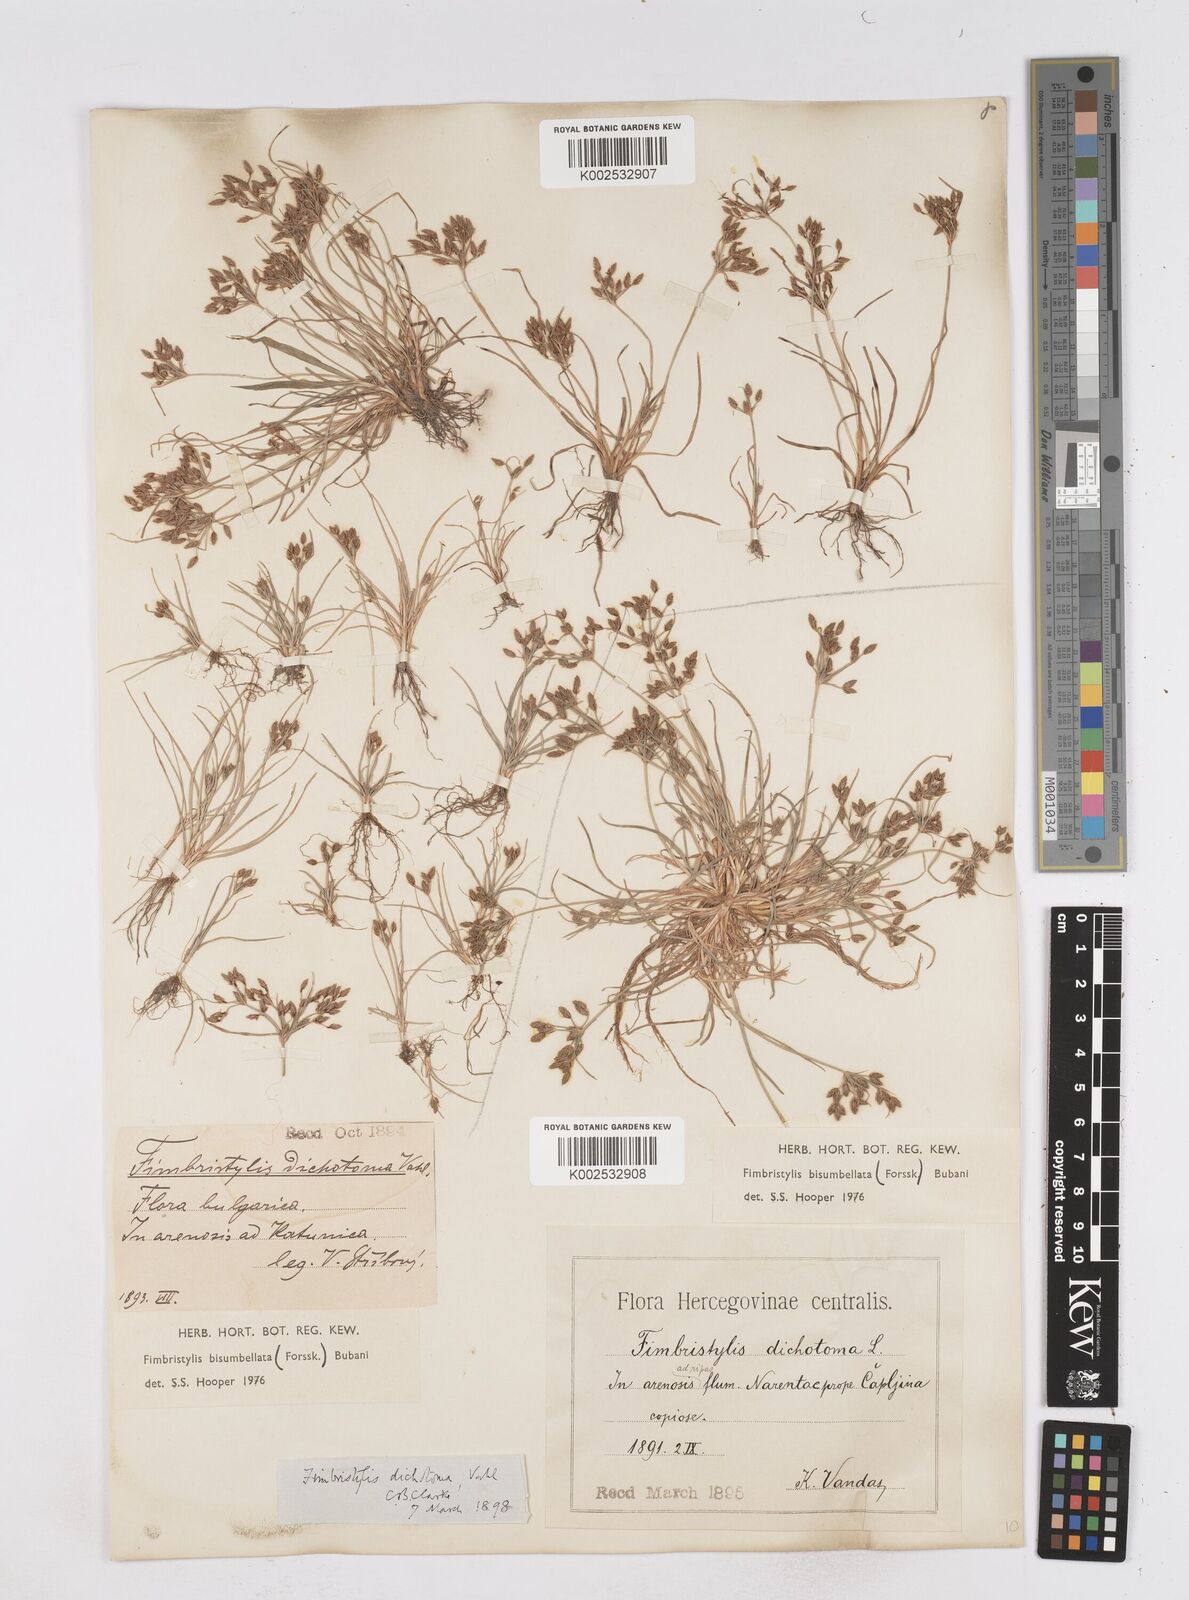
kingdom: Plantae
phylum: Tracheophyta
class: Liliopsida
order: Poales
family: Cyperaceae
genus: Fimbristylis
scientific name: Fimbristylis bisumbellata
